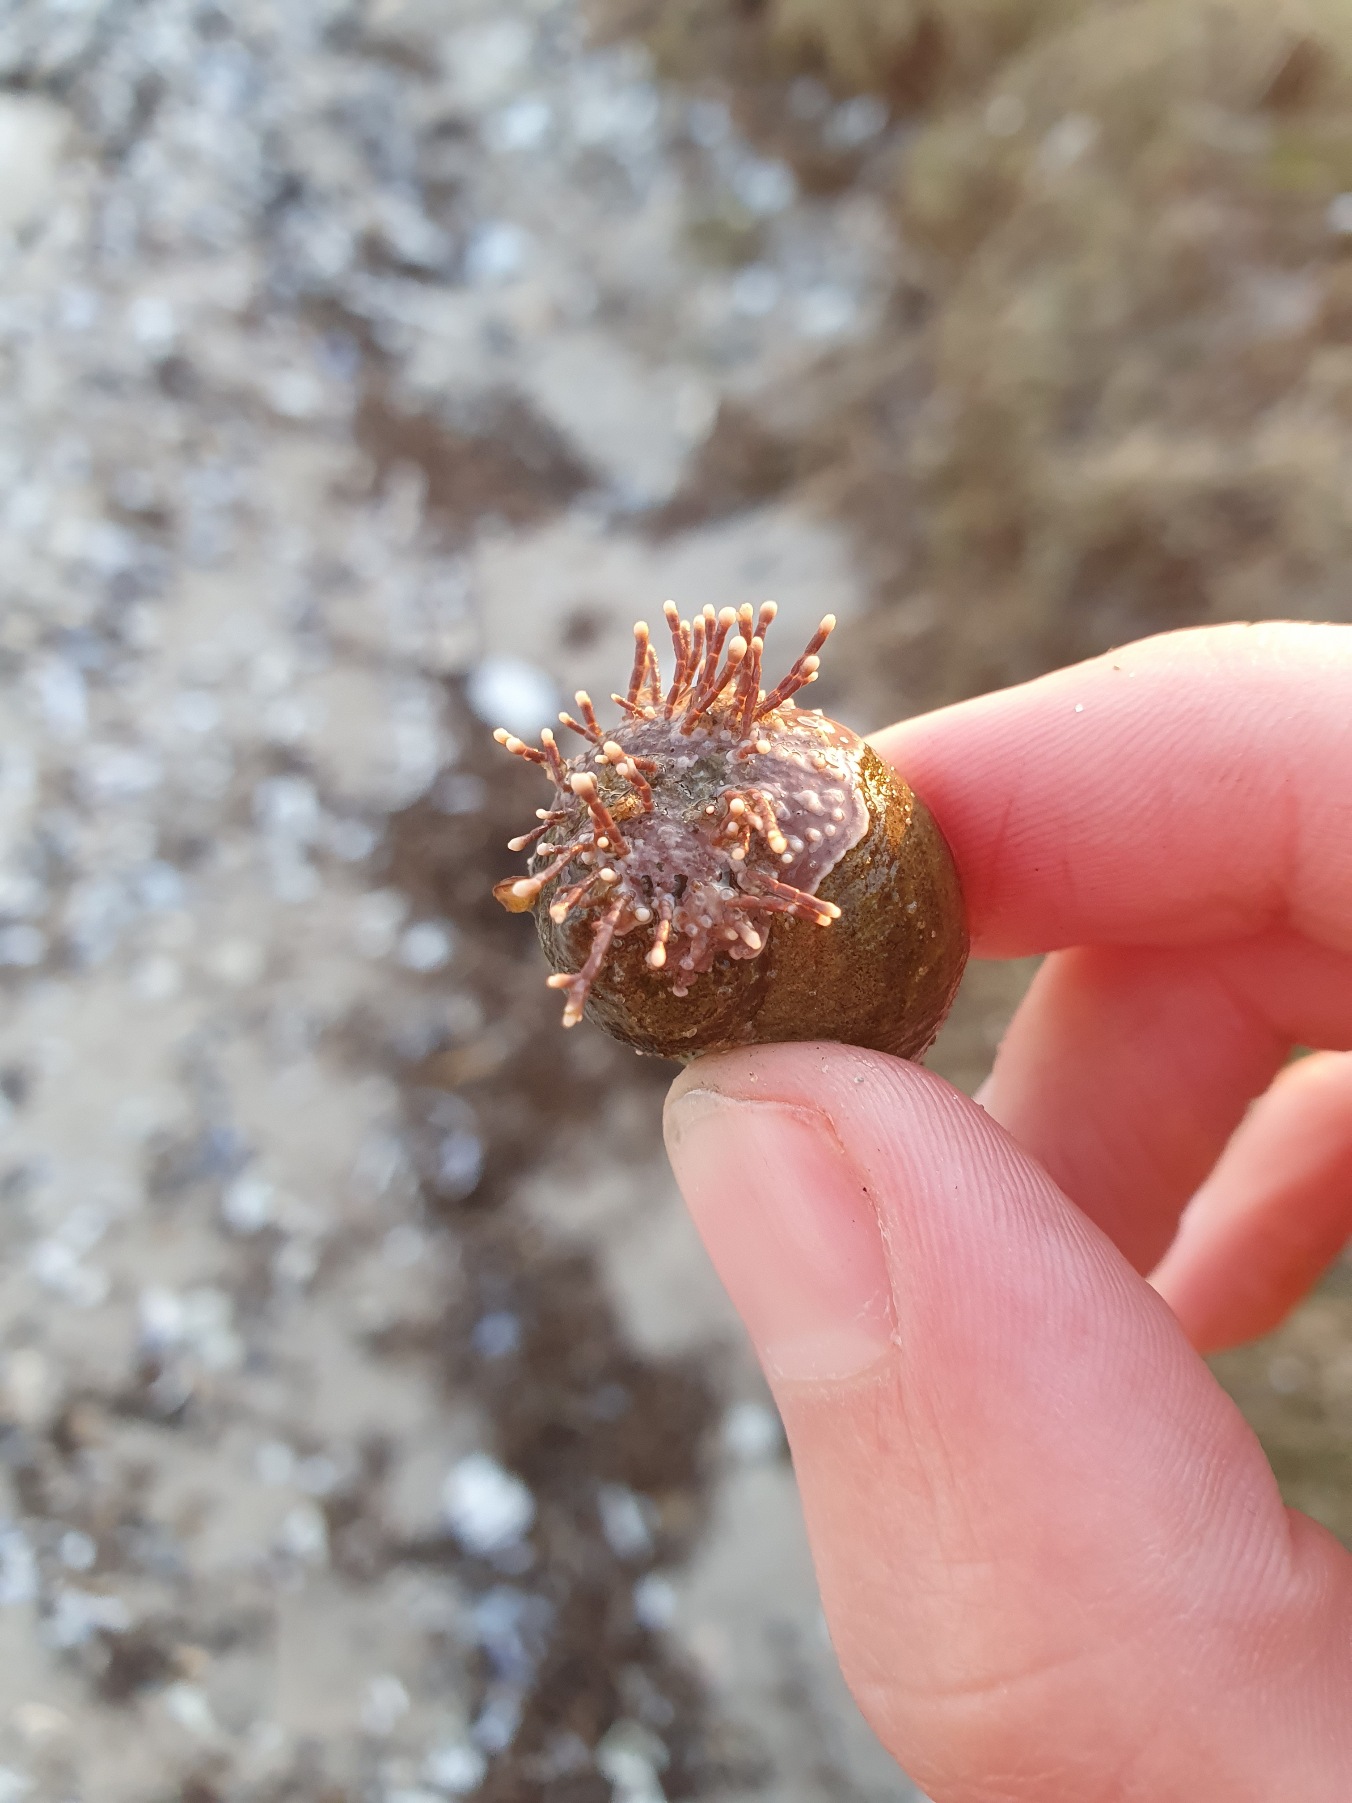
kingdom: Plantae
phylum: Rhodophyta
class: Florideophyceae
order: Corallinales
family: Corallinaceae
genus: Corallina
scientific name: Corallina officinalis
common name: Koralalge
